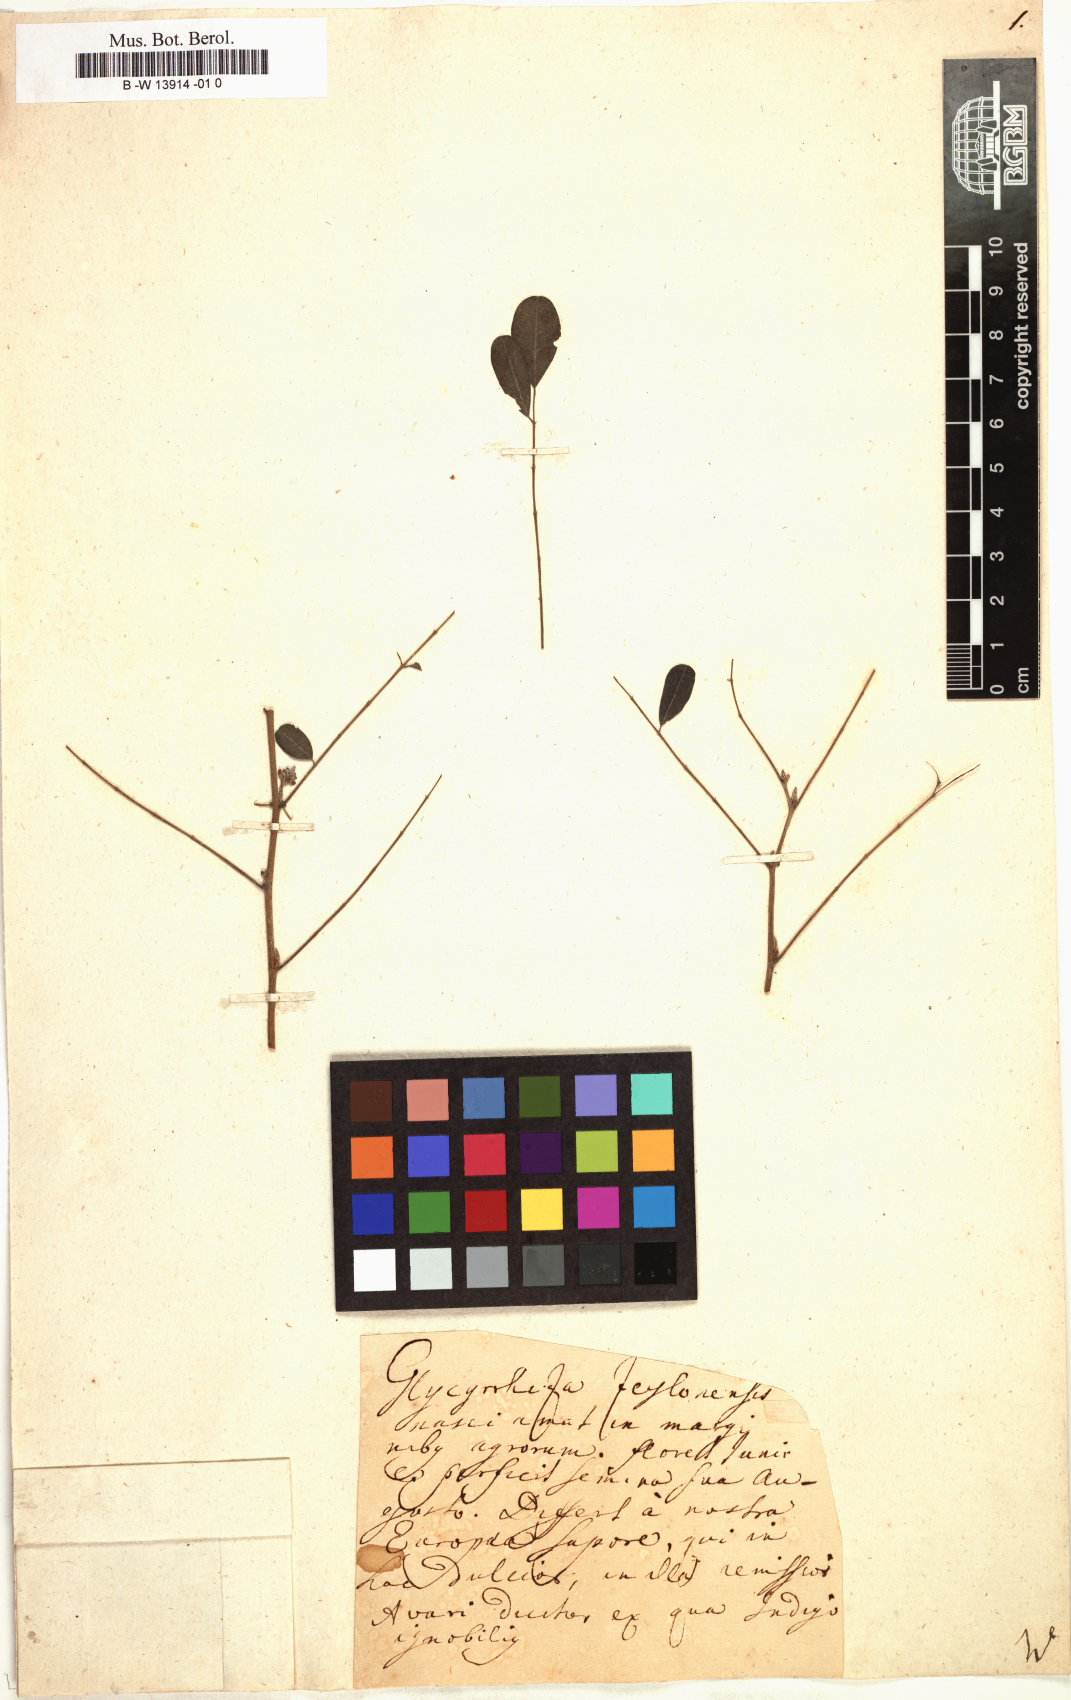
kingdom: Plantae
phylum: Tracheophyta
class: Magnoliopsida
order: Fabales
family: Fabaceae
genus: Indigofera
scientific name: Indigofera
